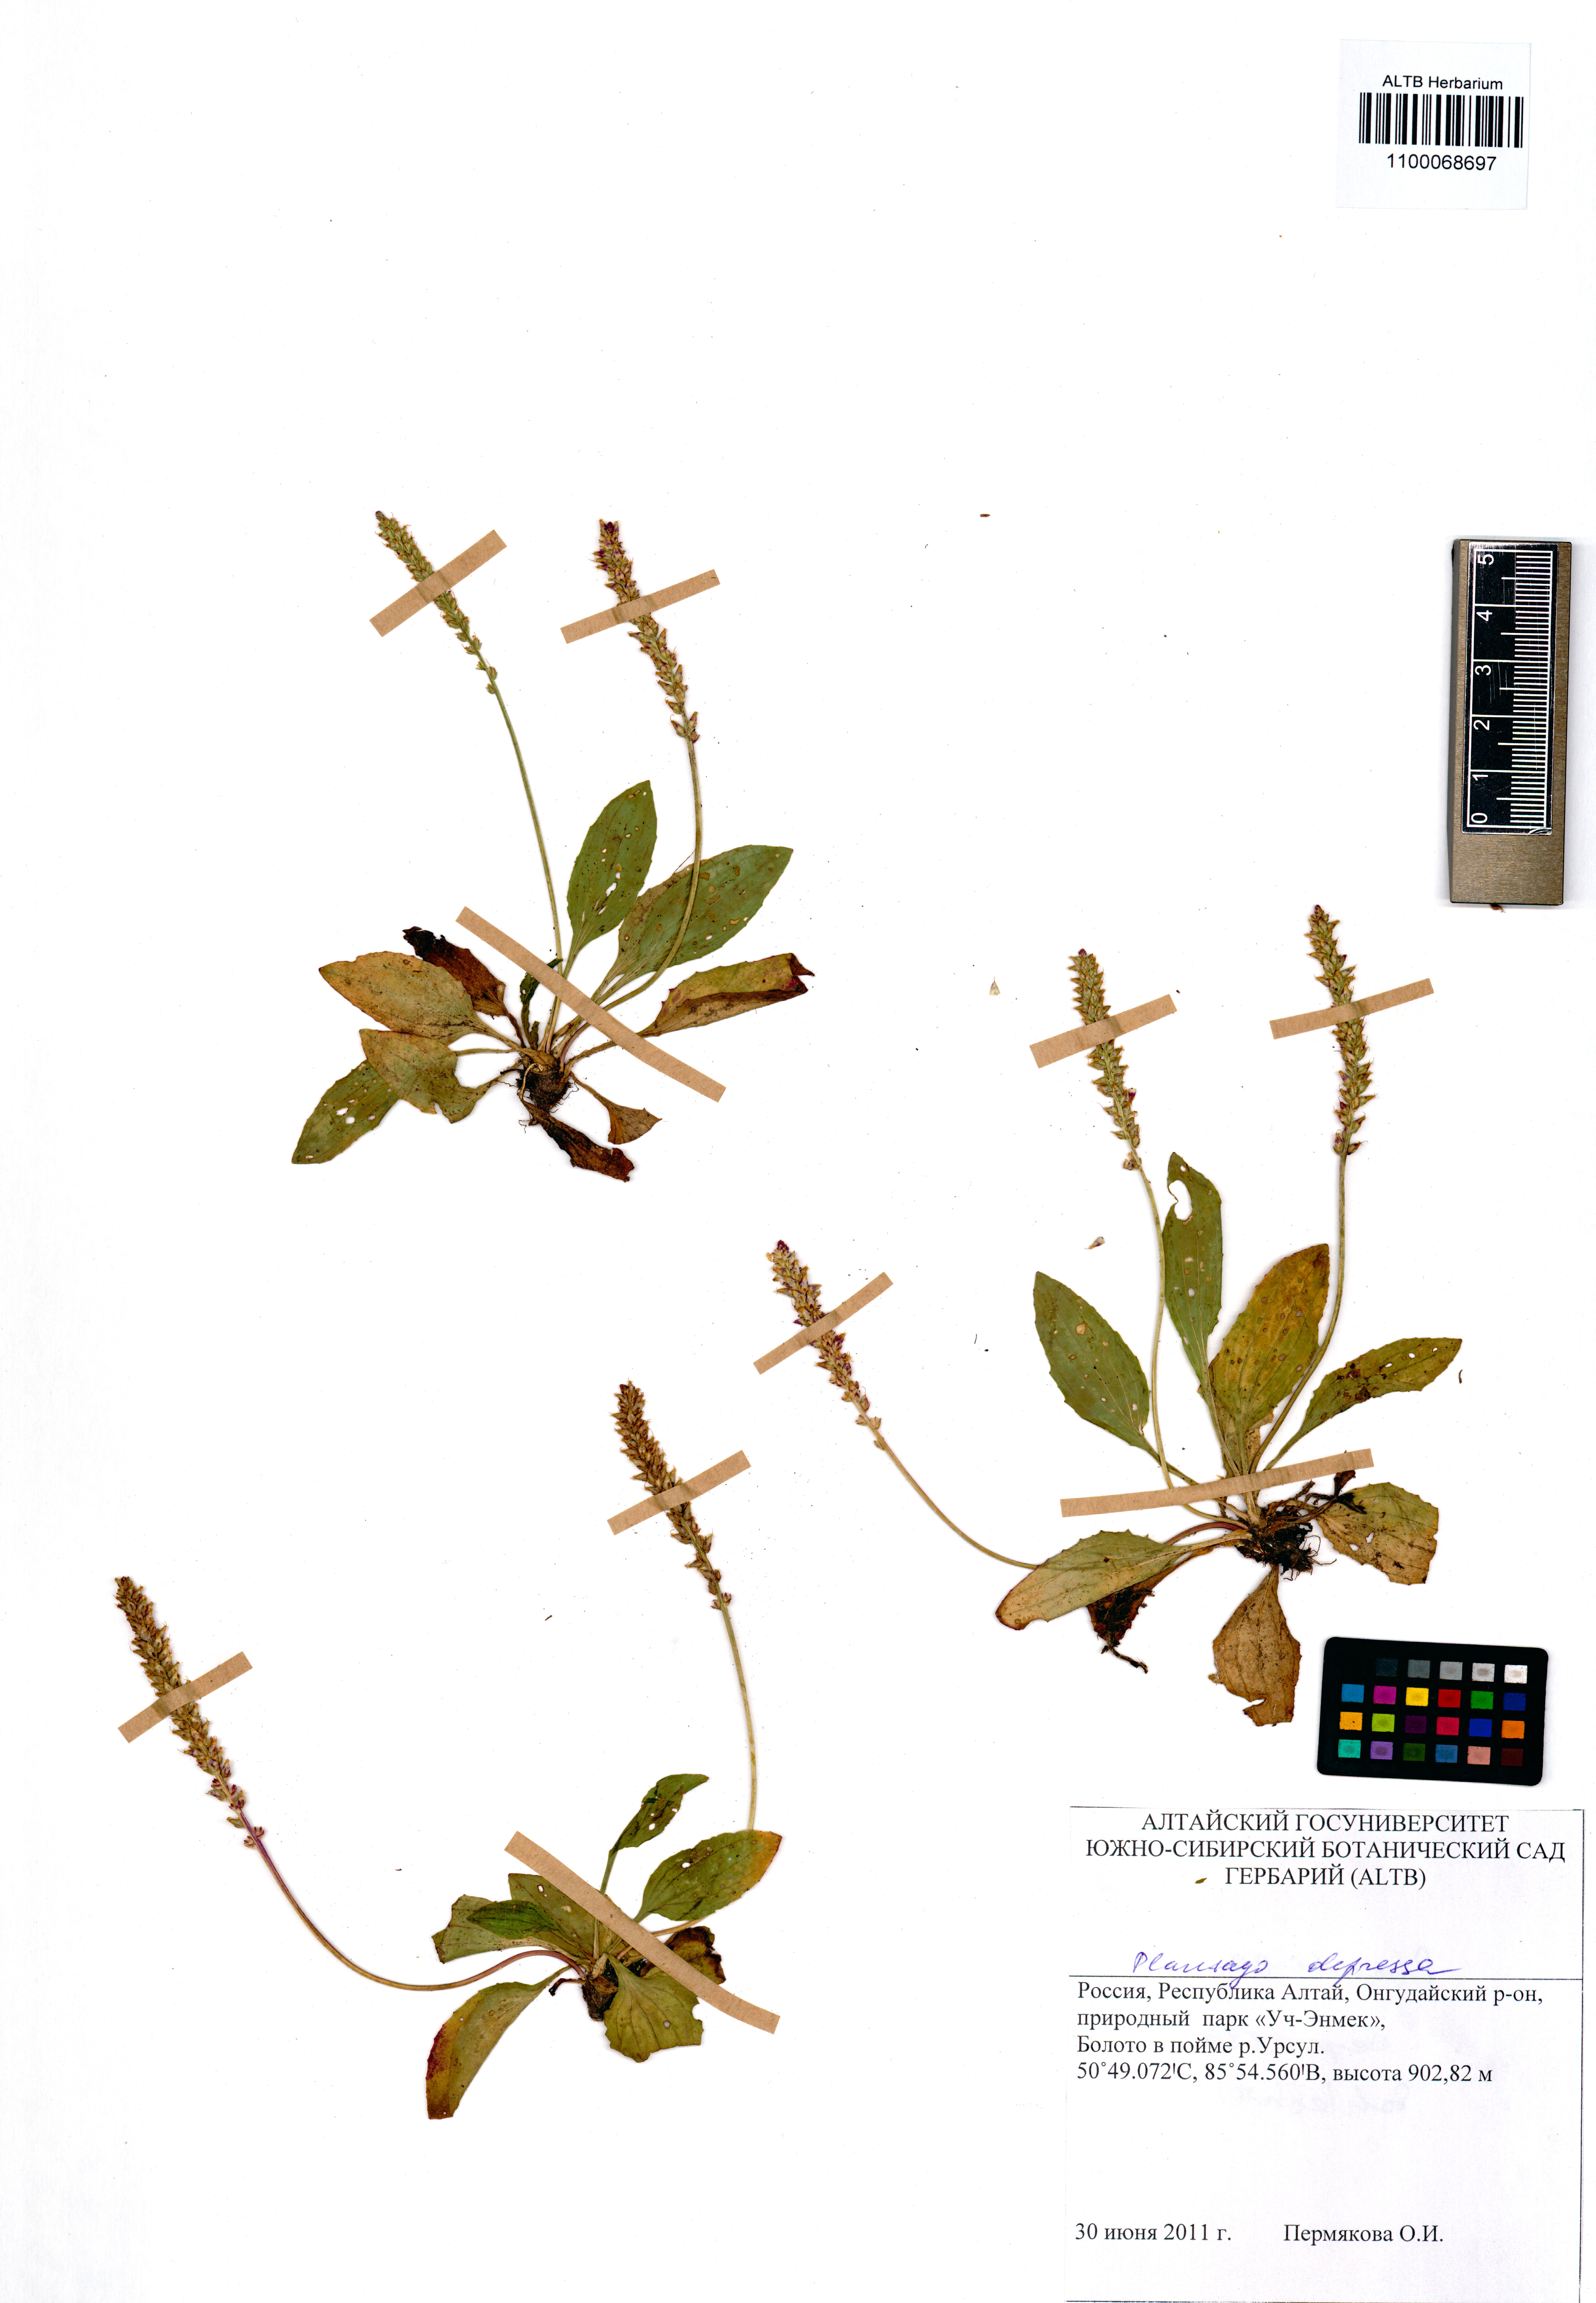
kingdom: Plantae
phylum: Tracheophyta
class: Magnoliopsida
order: Asterales
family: Asteraceae
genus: Tanacetum
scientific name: Tanacetum crassipes
